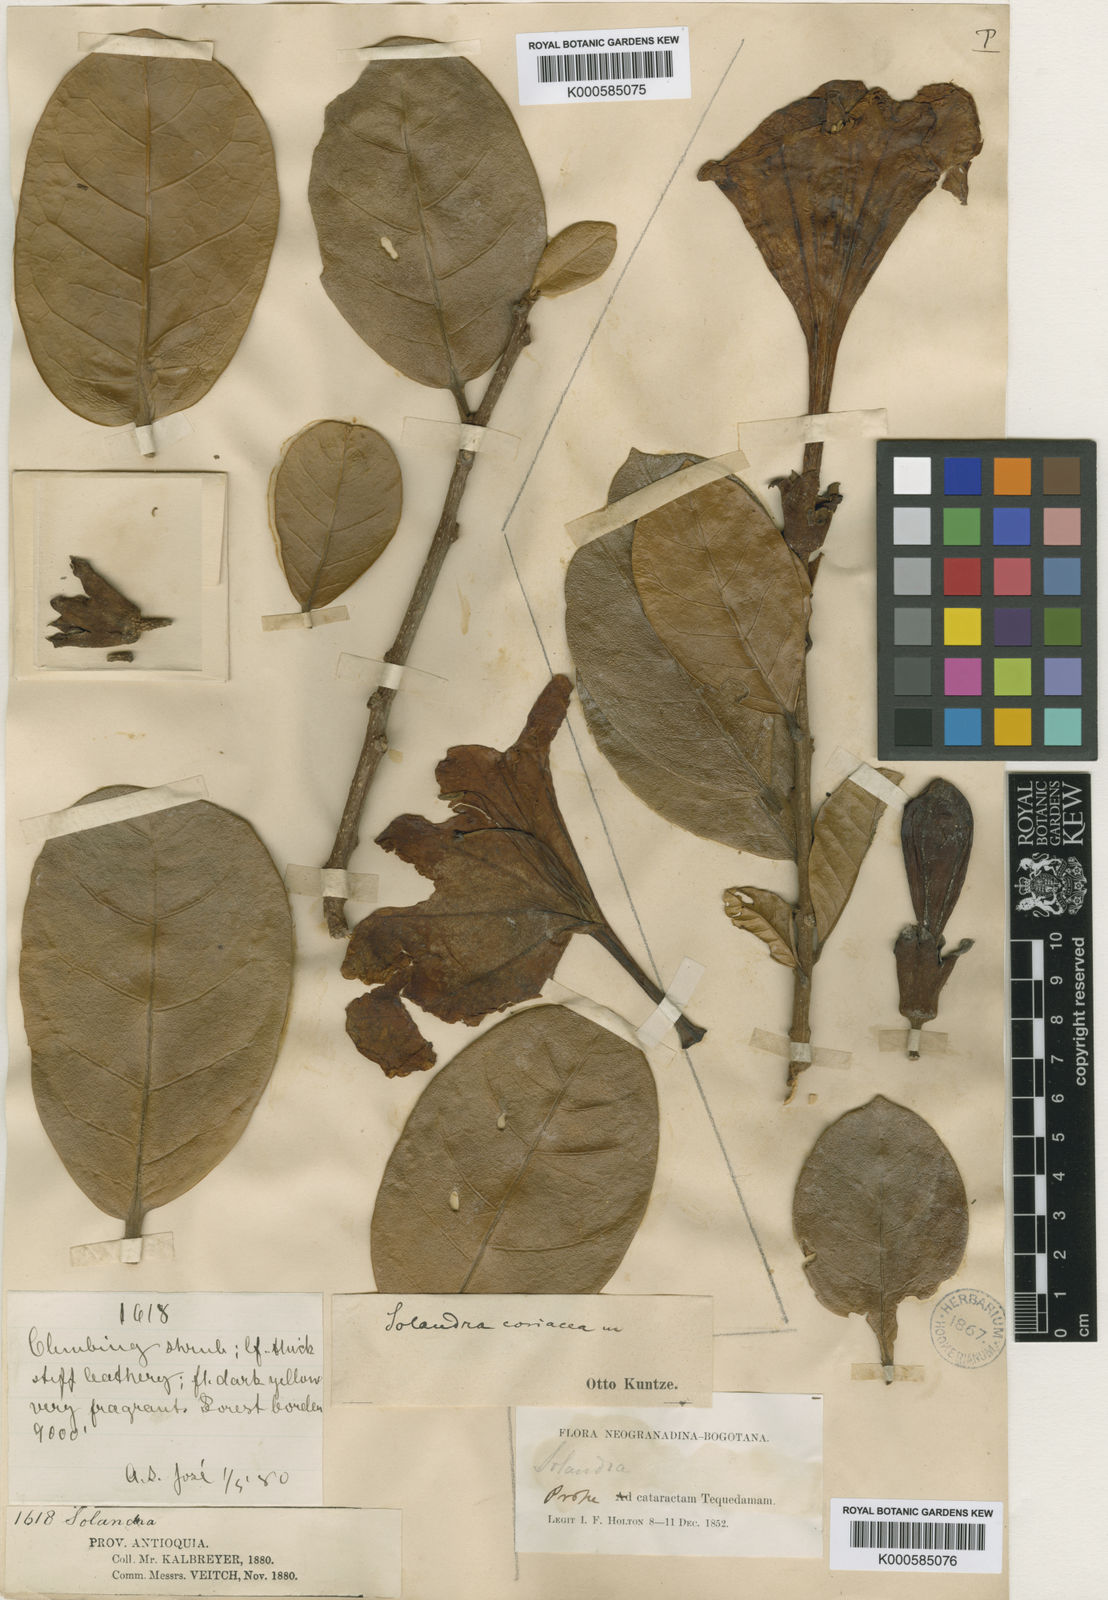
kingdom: Plantae
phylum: Tracheophyta
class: Magnoliopsida
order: Solanales
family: Solanaceae
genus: Schultesianthus
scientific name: Schultesianthus coriaceus
